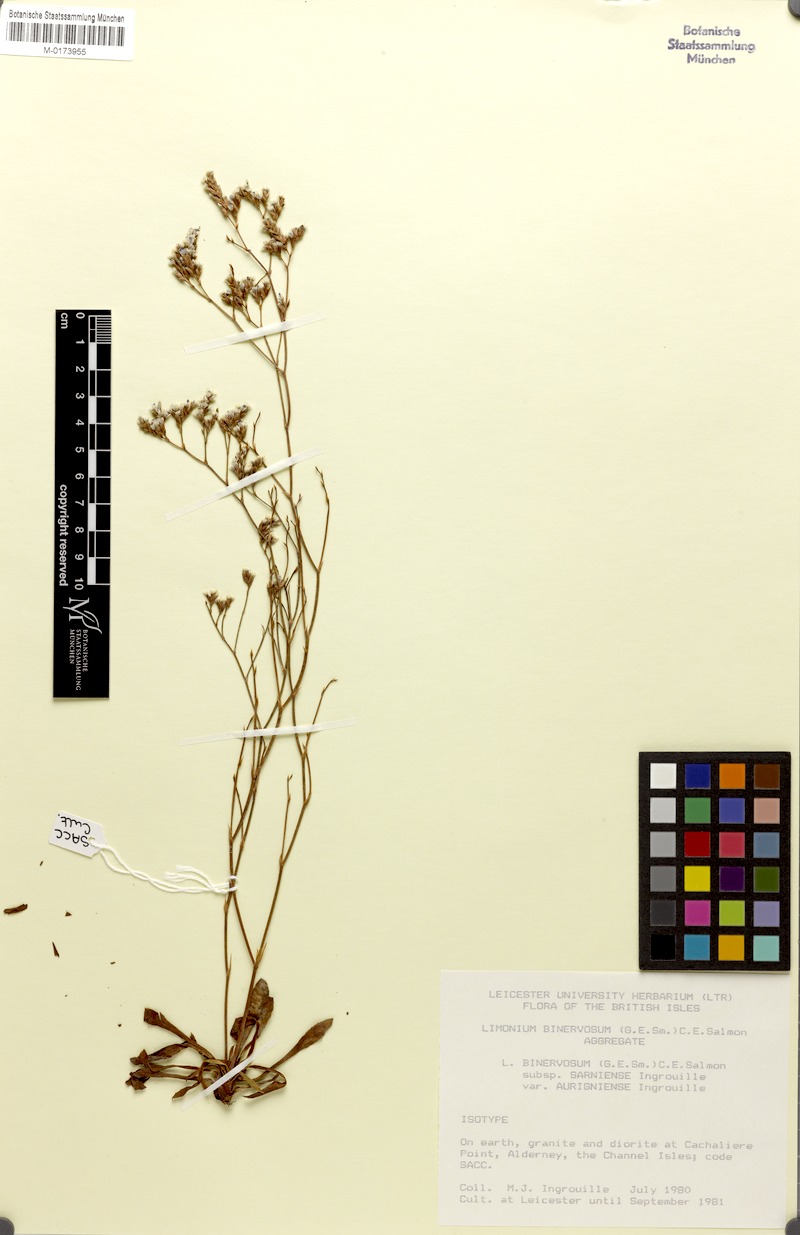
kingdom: Plantae
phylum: Tracheophyta
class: Magnoliopsida
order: Caryophyllales
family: Plumbaginaceae
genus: Limonium
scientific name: Limonium binervosum
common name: Rock sea-lavender
